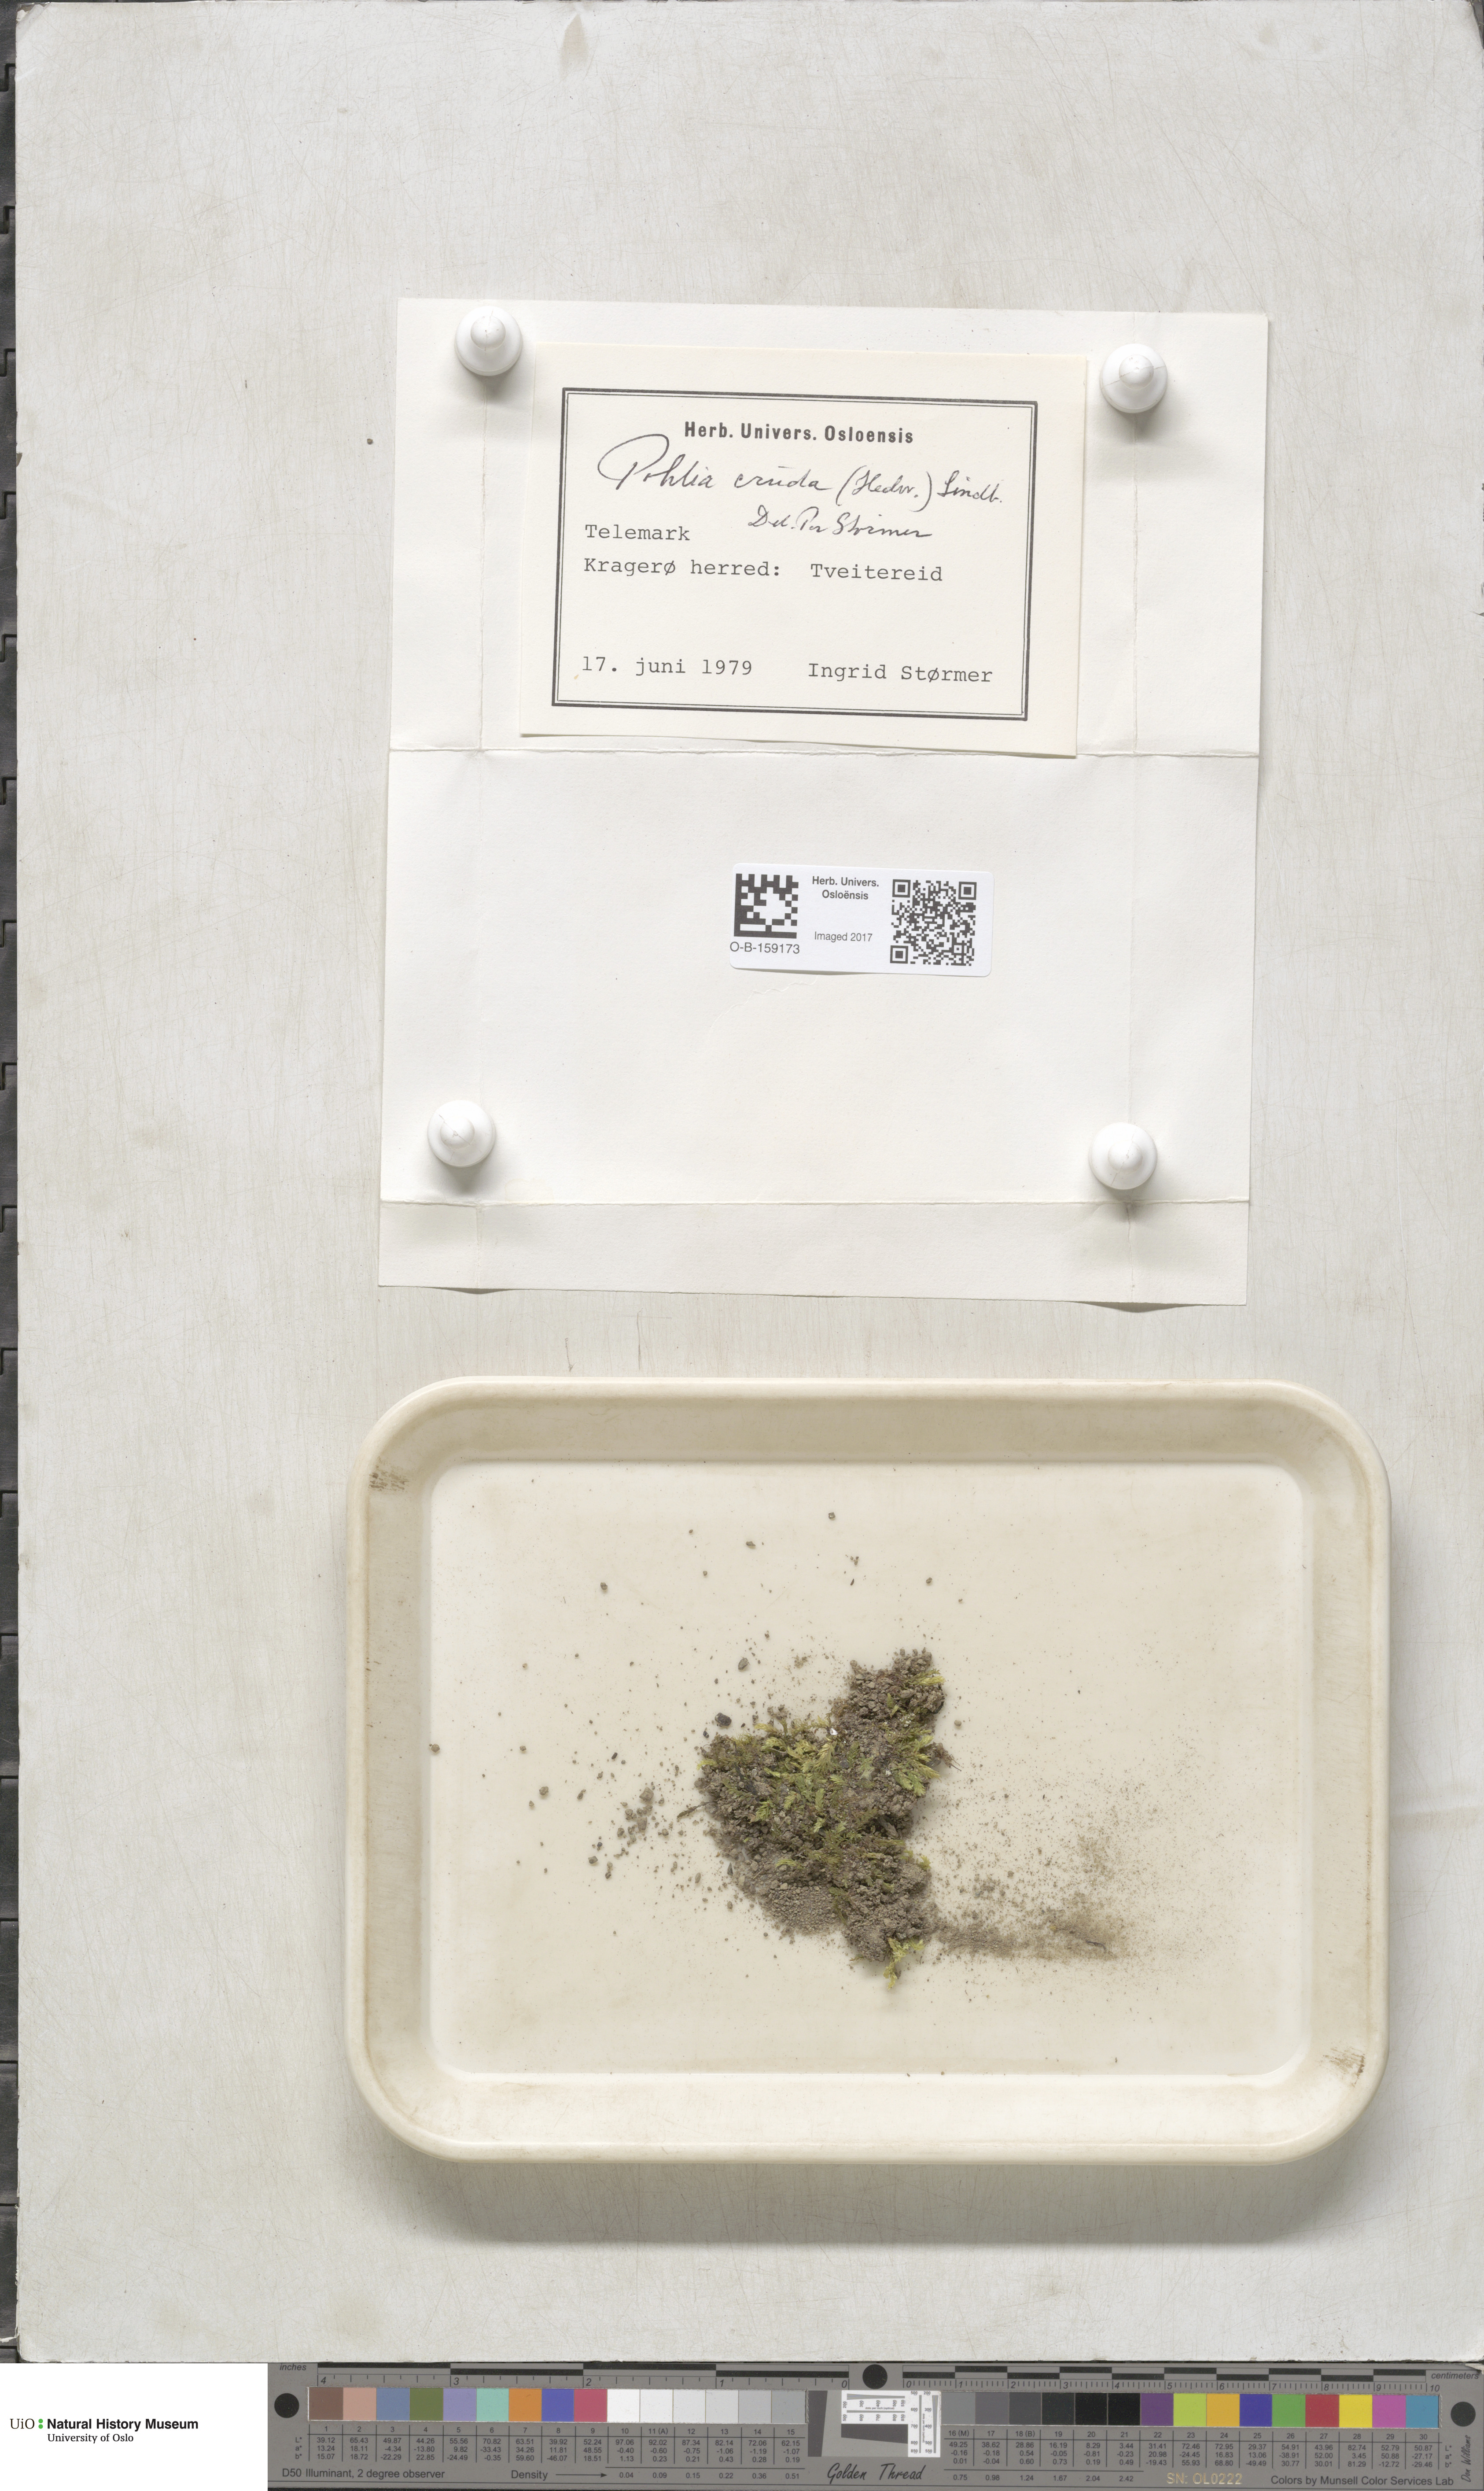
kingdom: Plantae
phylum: Bryophyta
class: Bryopsida
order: Bryales
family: Mniaceae
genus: Pohlia
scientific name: Pohlia cruda
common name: Opal nodding moss
